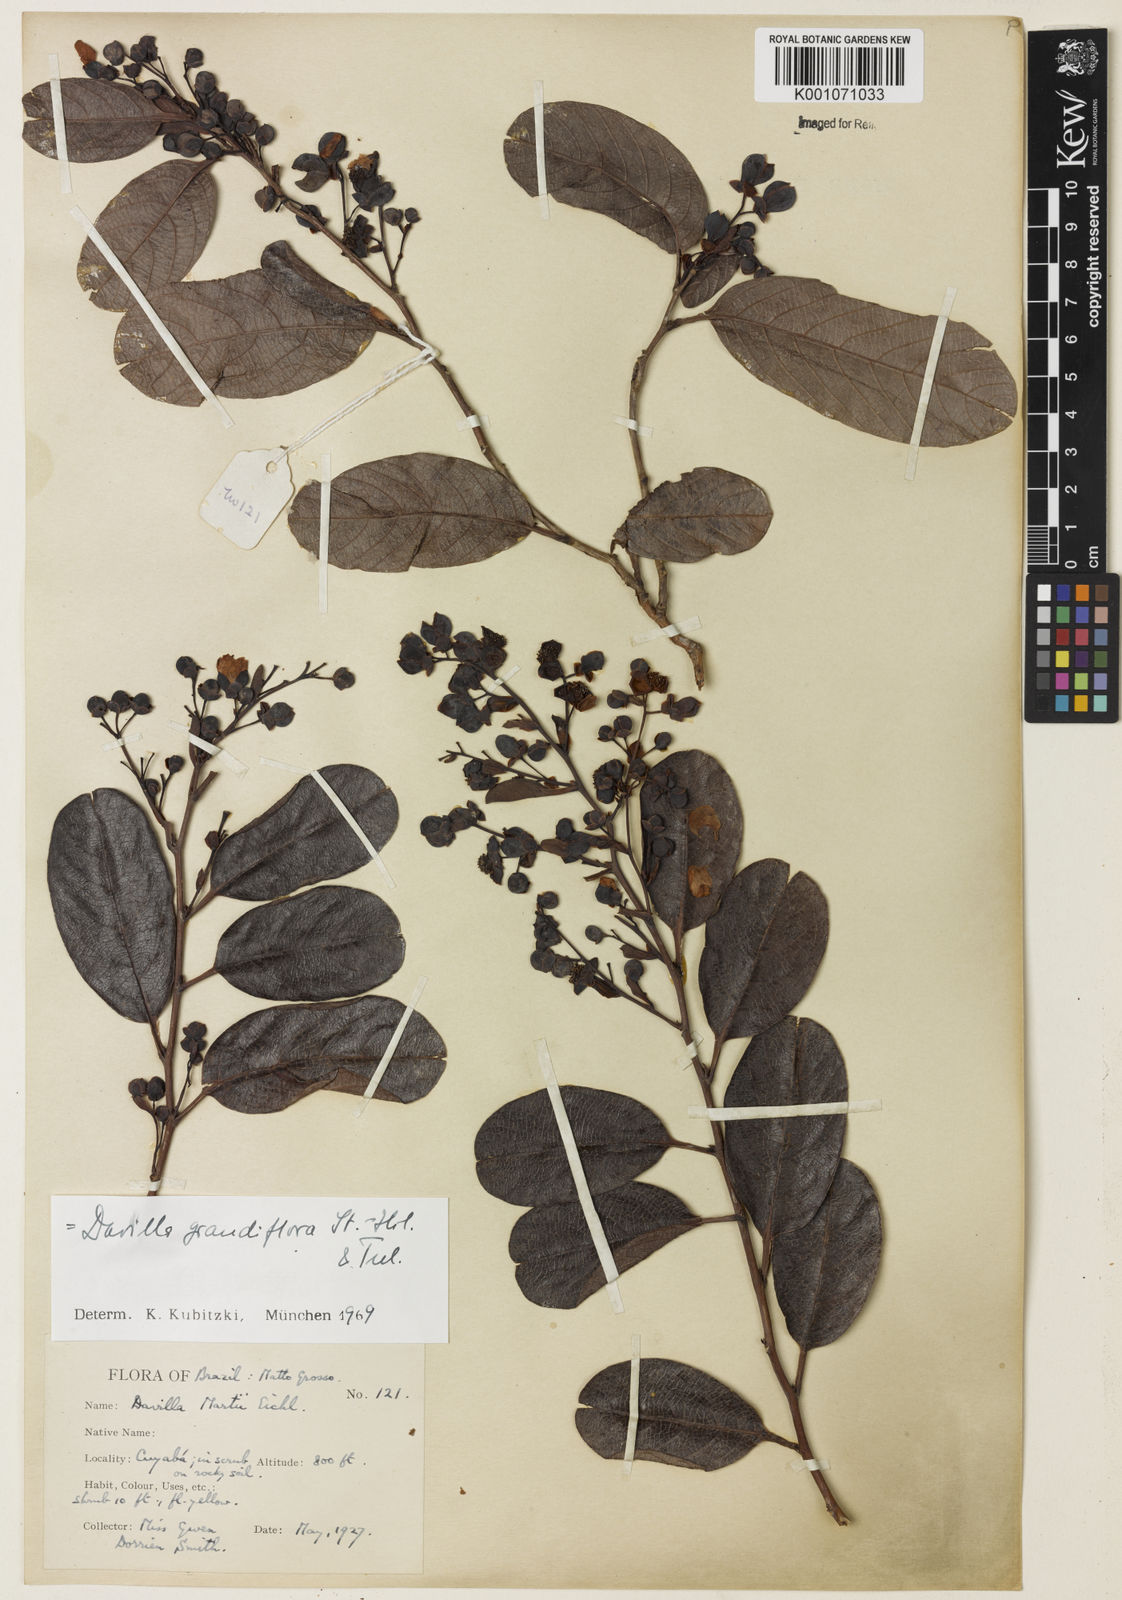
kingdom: Plantae
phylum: Tracheophyta
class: Magnoliopsida
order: Dilleniales
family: Dilleniaceae
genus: Davilla
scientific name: Davilla grandiflora
